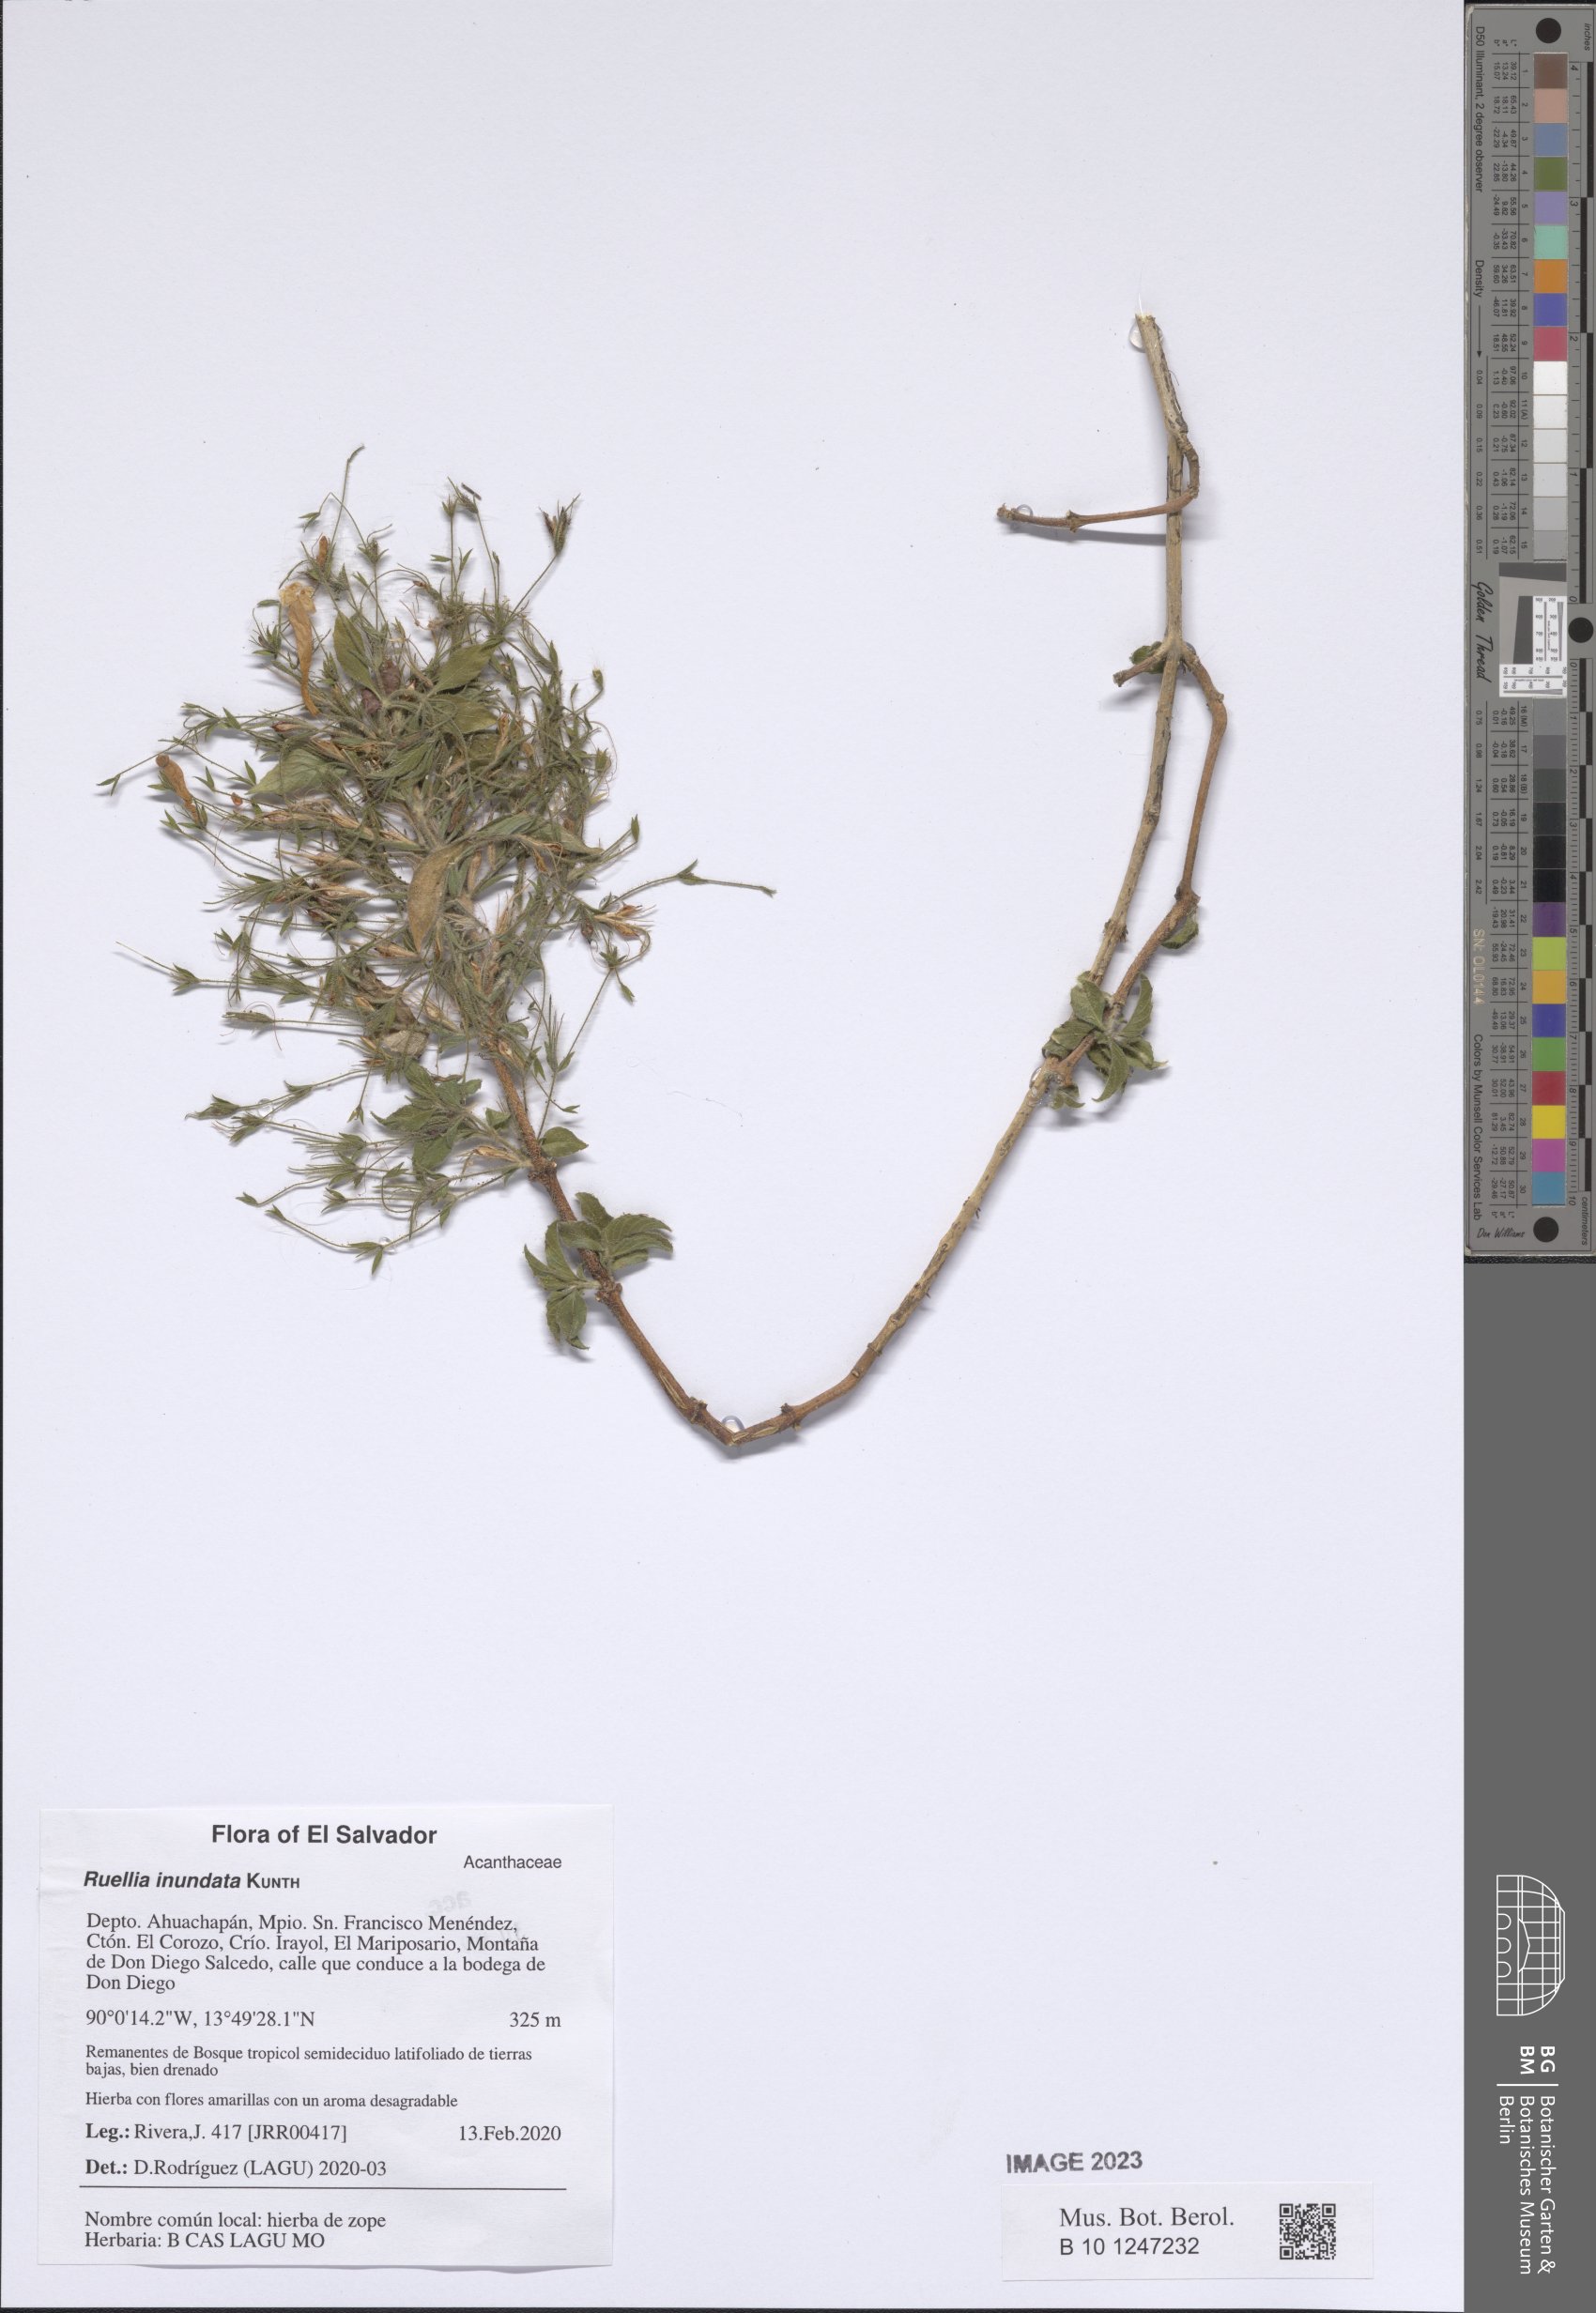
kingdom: Plantae
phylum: Tracheophyta
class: Magnoliopsida
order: Lamiales
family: Acanthaceae
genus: Ruellia
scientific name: Ruellia inundata
